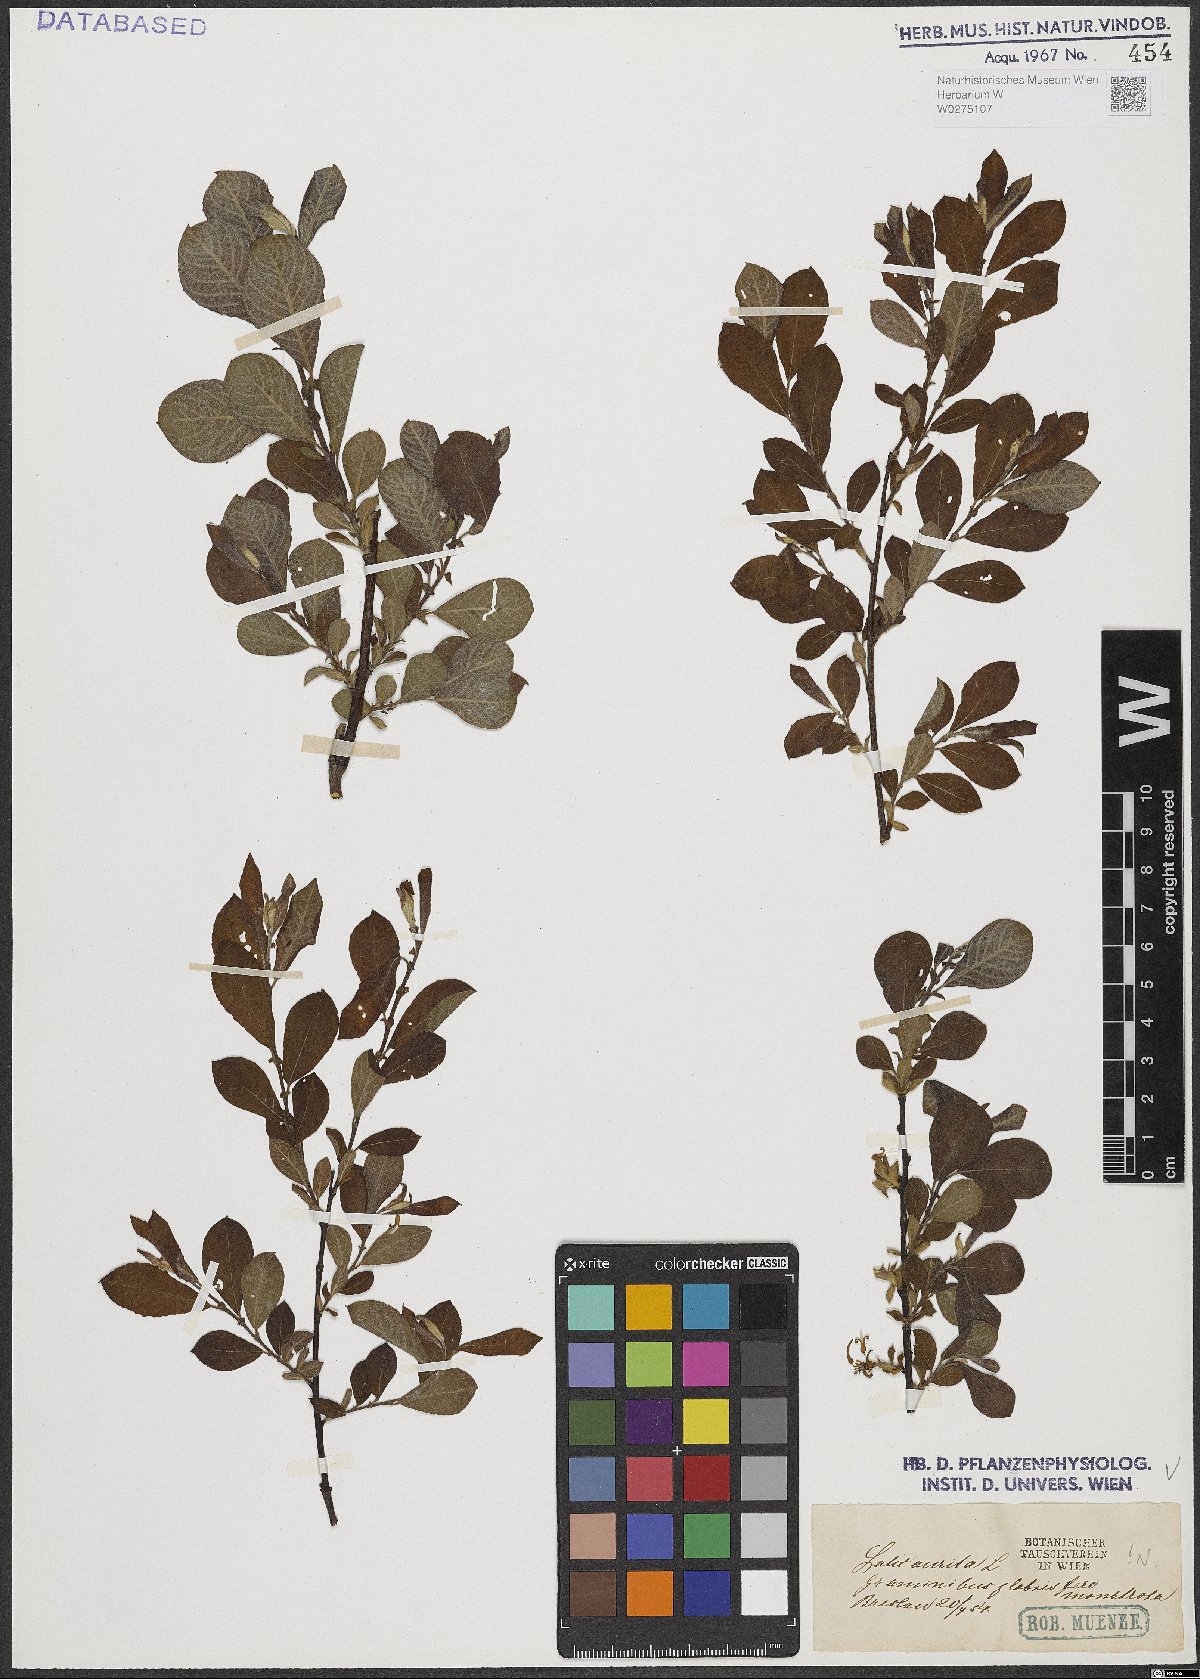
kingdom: Plantae
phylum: Tracheophyta
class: Magnoliopsida
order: Malpighiales
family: Salicaceae
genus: Salix
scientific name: Salix aurita
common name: Eared willow
